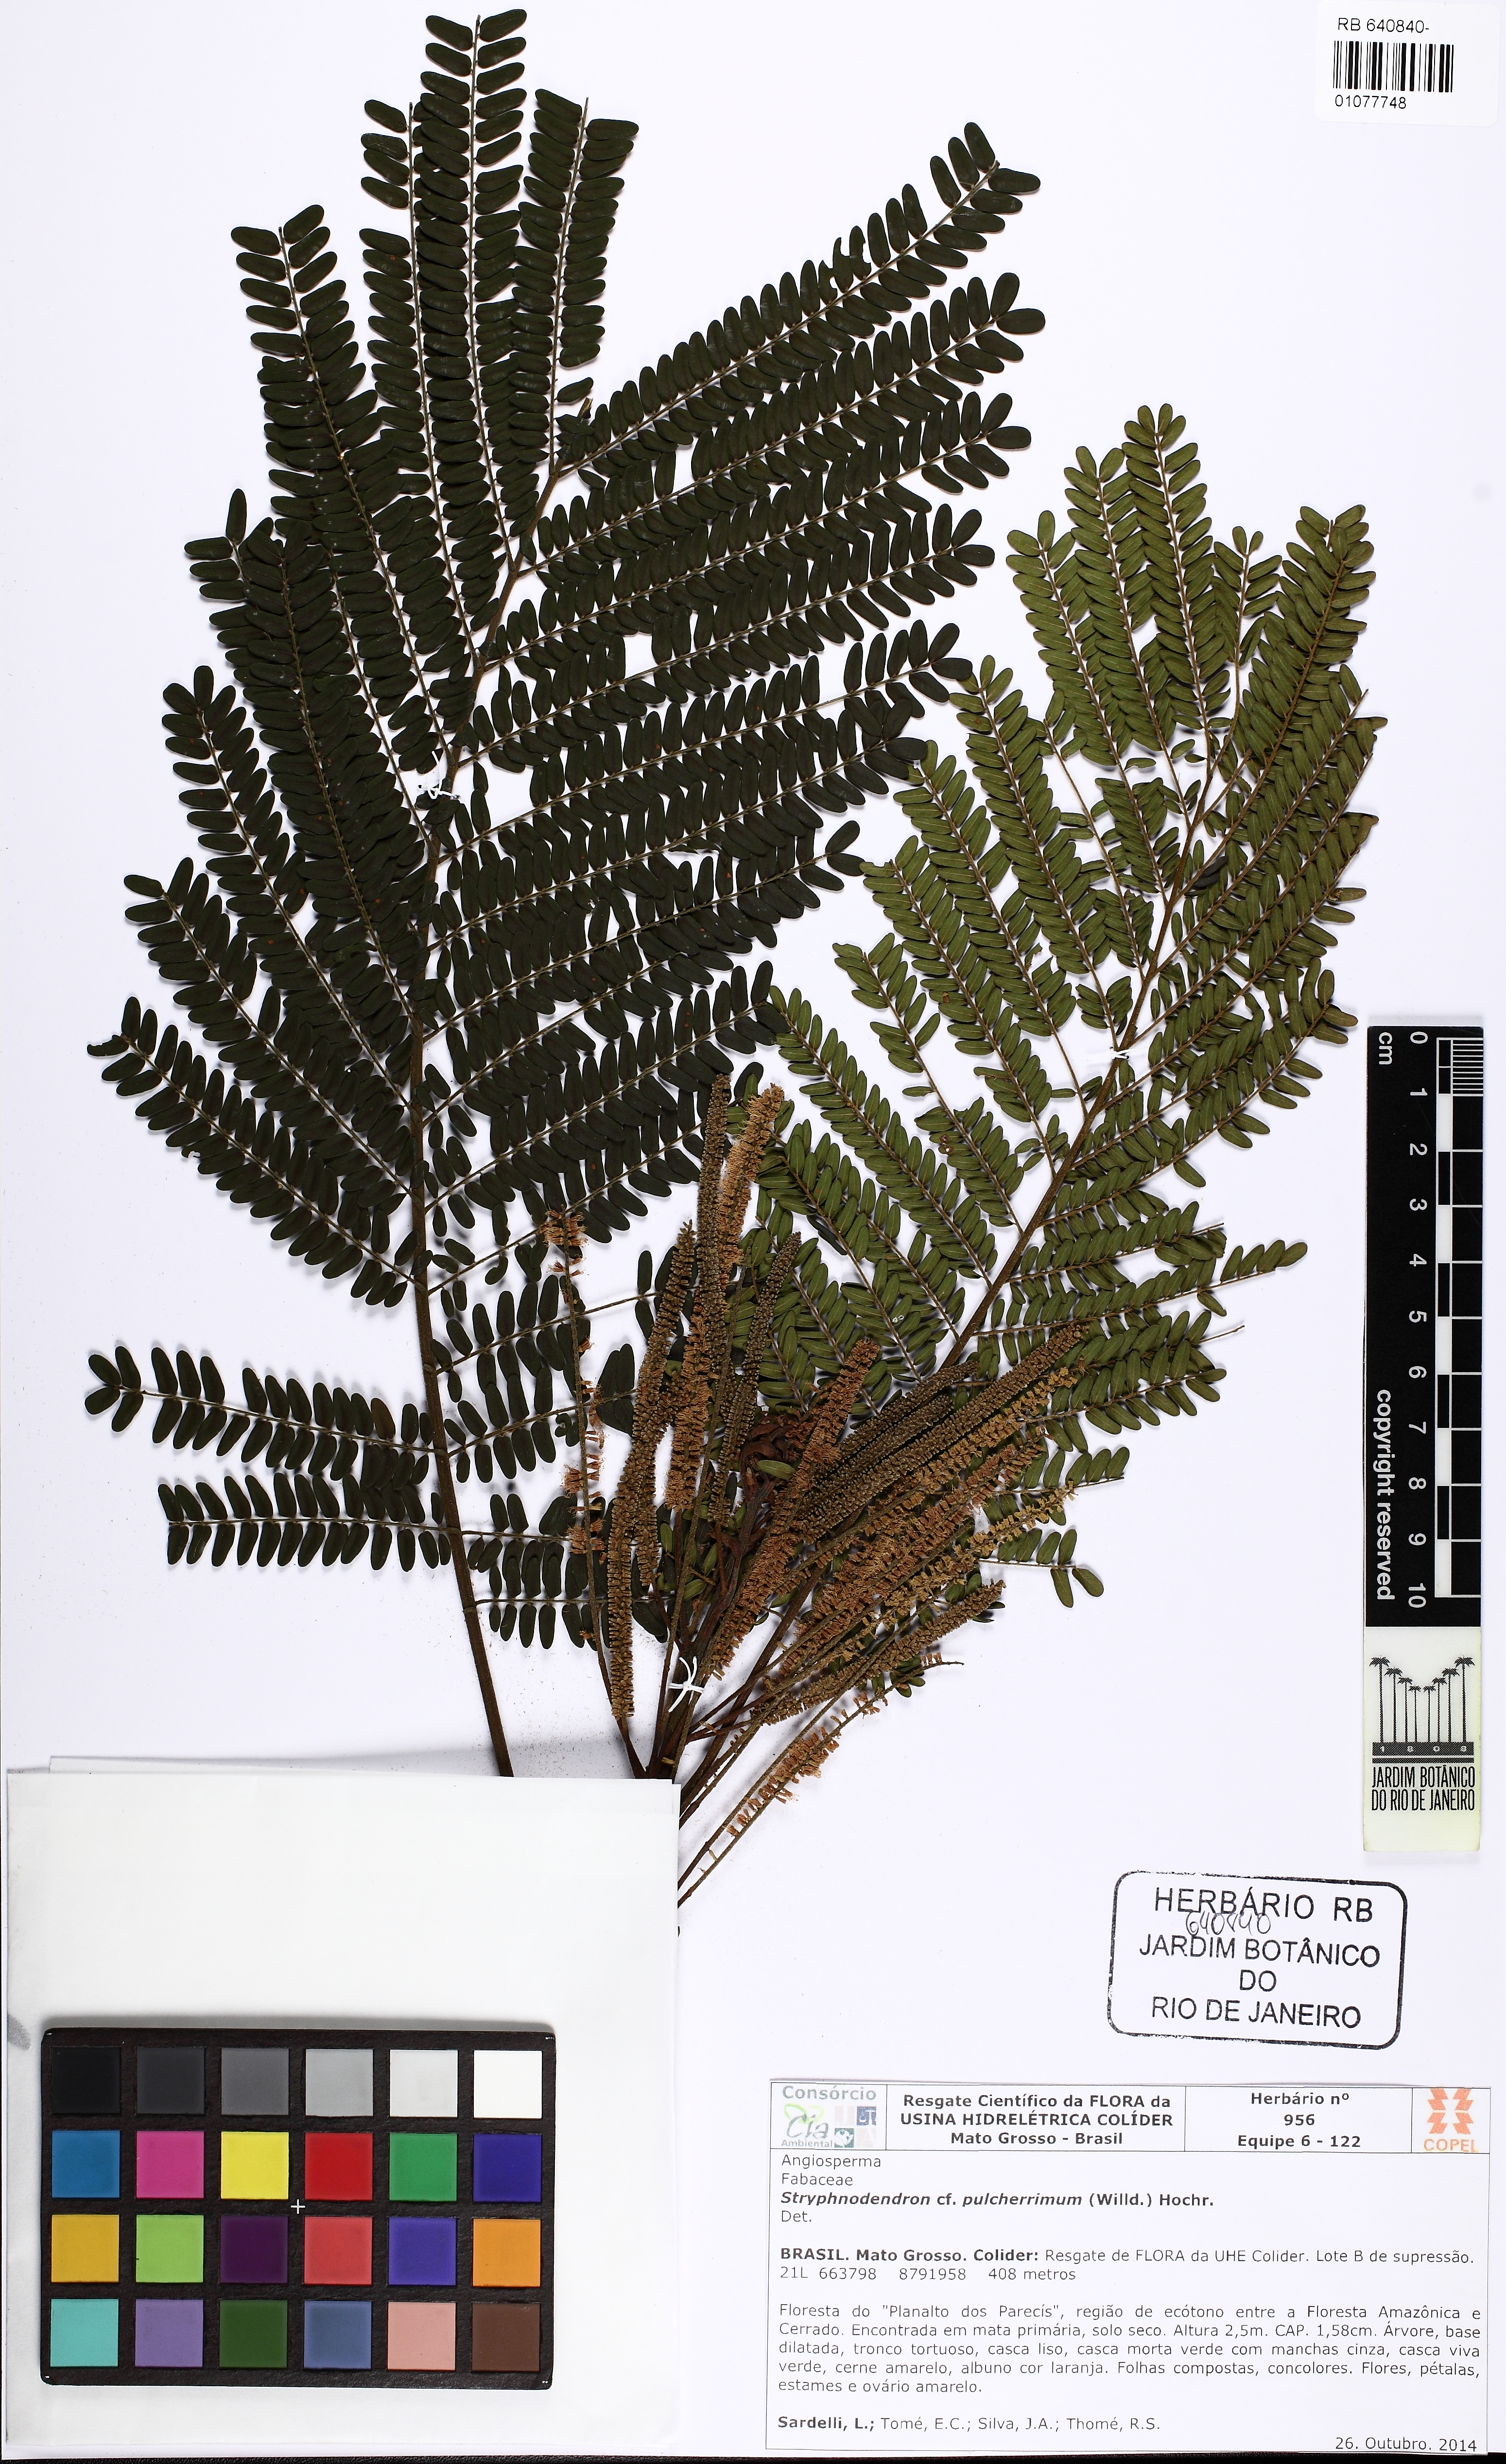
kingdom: Plantae
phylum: Tracheophyta
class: Magnoliopsida
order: Fabales
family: Fabaceae
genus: Stryphnodendron
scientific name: Stryphnodendron pulcherrimum
